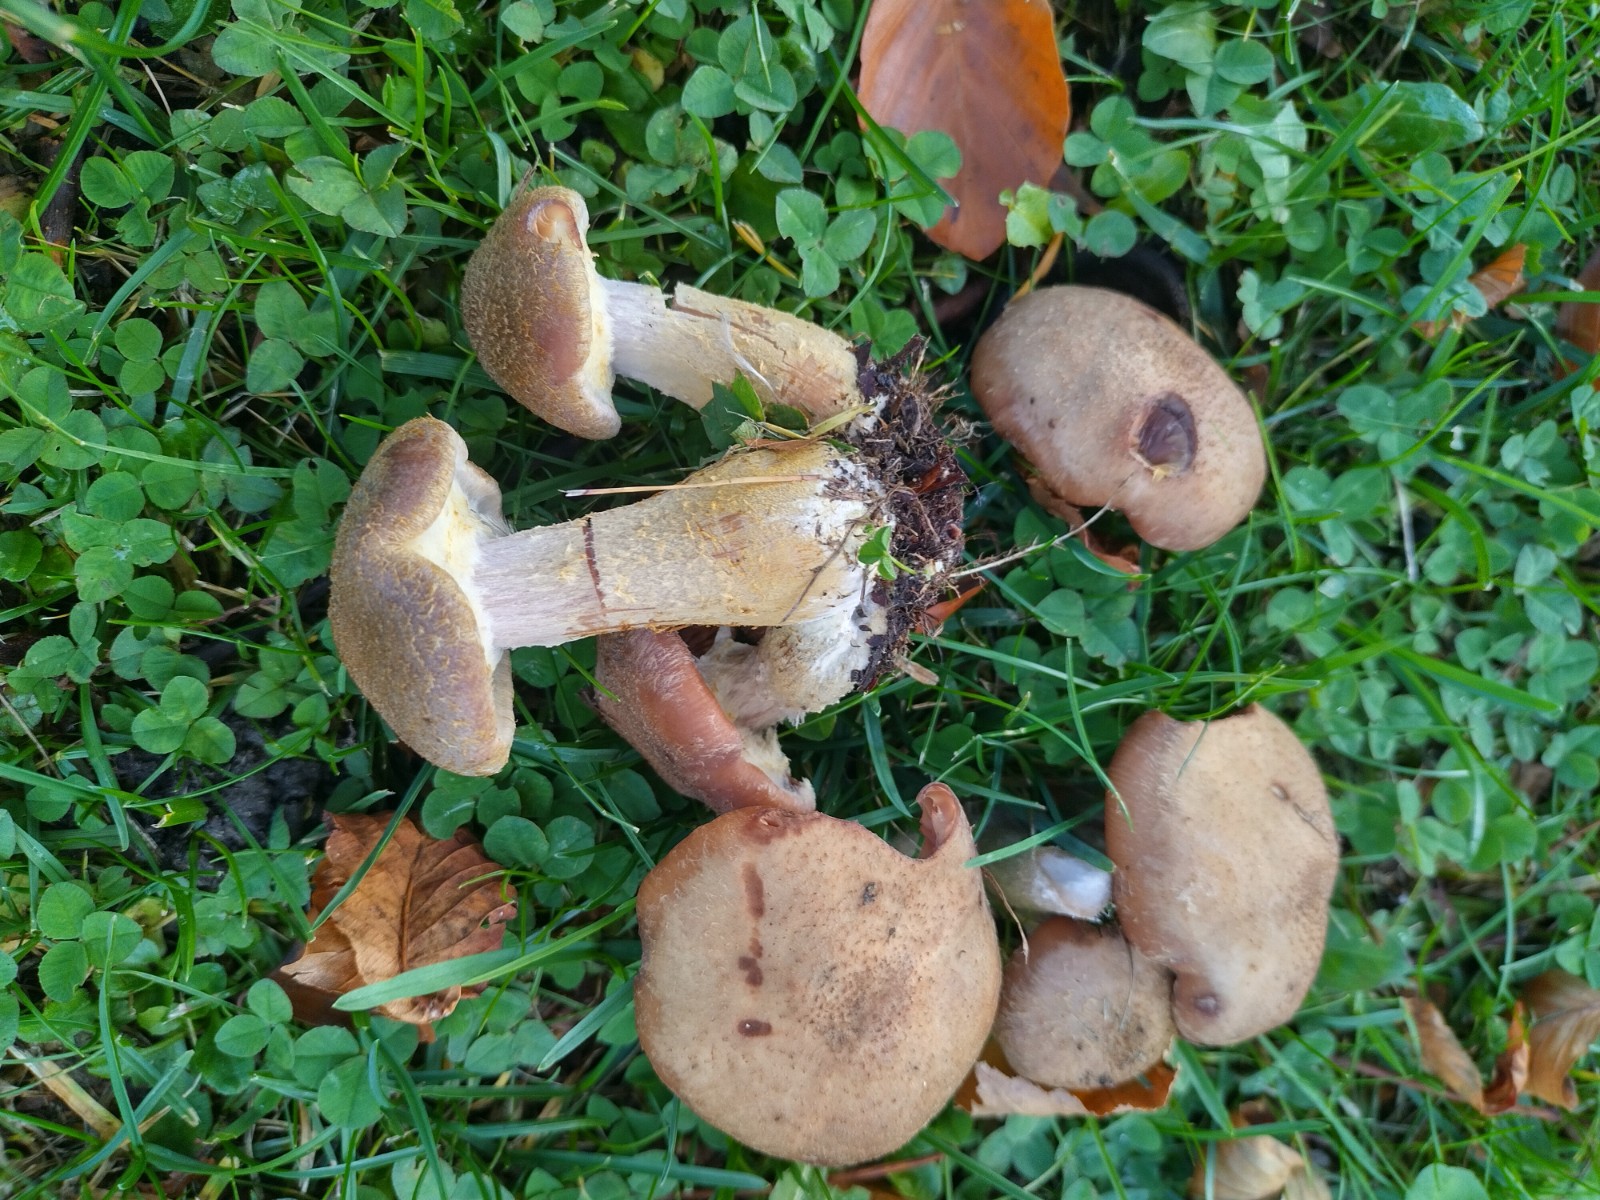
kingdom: Fungi
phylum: Basidiomycota
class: Agaricomycetes
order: Agaricales
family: Physalacriaceae
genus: Armillaria
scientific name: Armillaria lutea
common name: køllestokket honningsvamp
